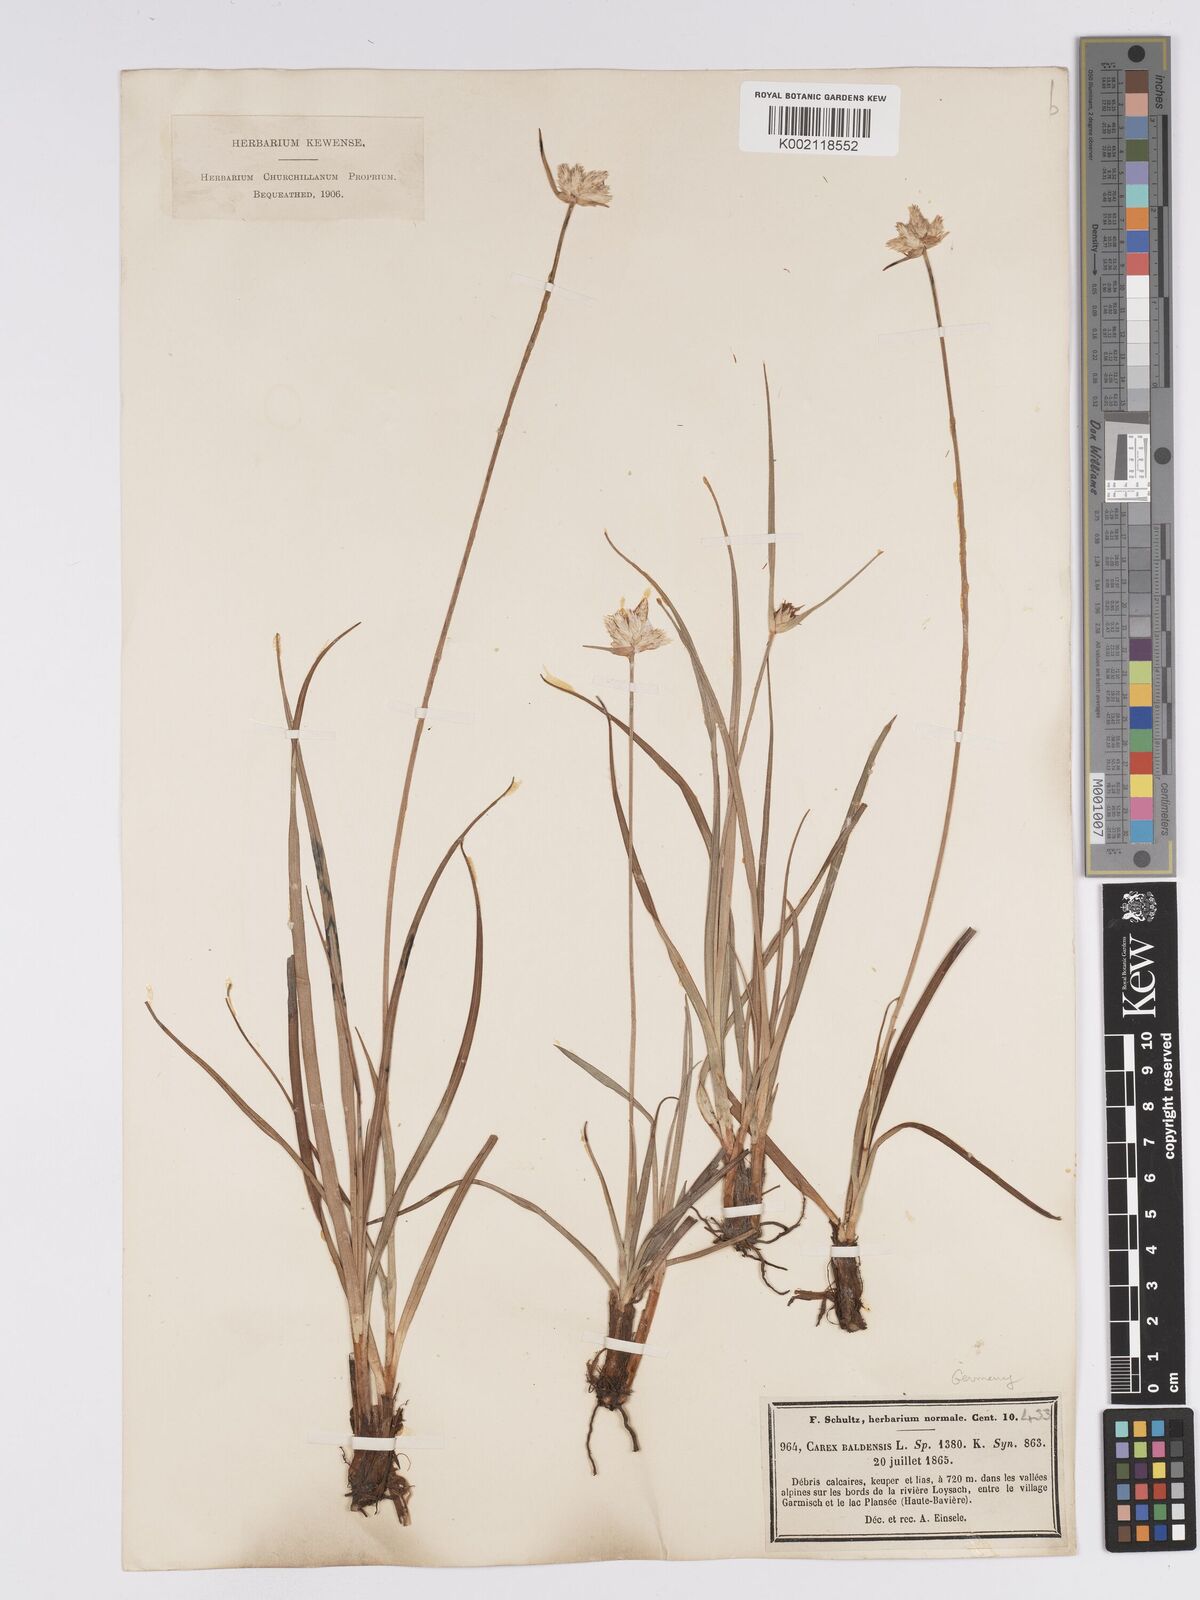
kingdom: Plantae
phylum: Tracheophyta
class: Liliopsida
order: Poales
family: Cyperaceae
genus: Carex
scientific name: Carex baldensis
